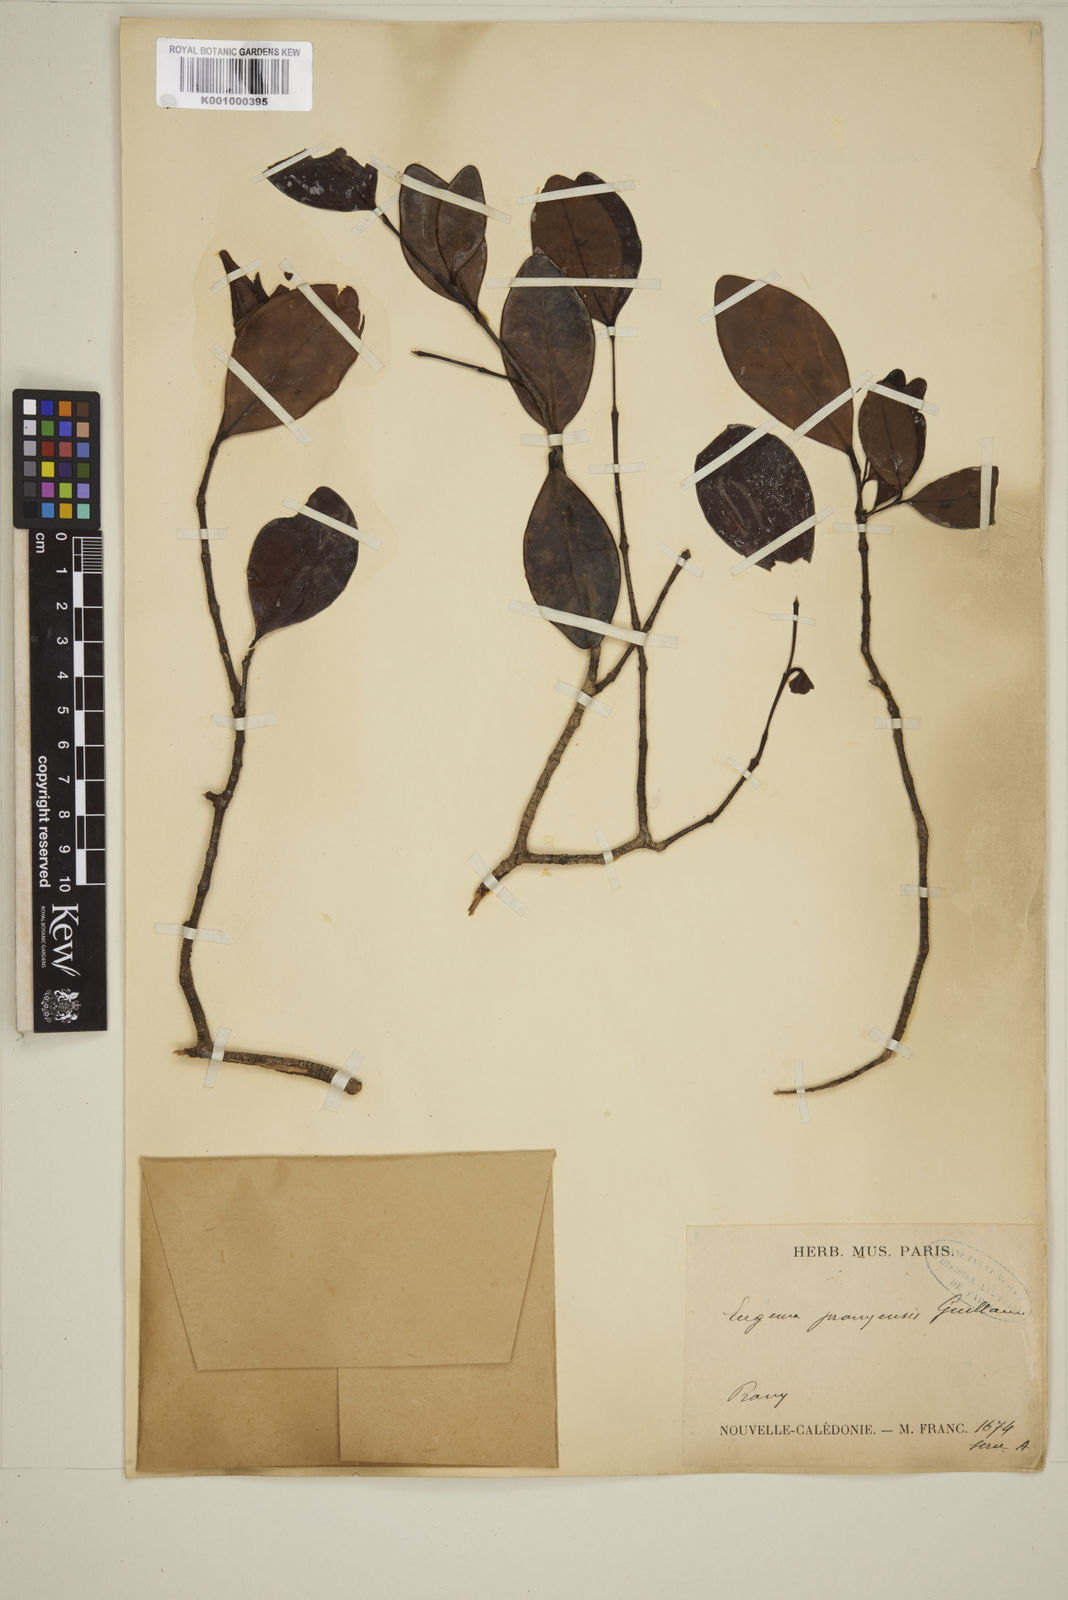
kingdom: Plantae
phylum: Tracheophyta
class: Magnoliopsida
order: Myrtales
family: Myrtaceae
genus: Eugenia
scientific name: Eugenia pronyensis
